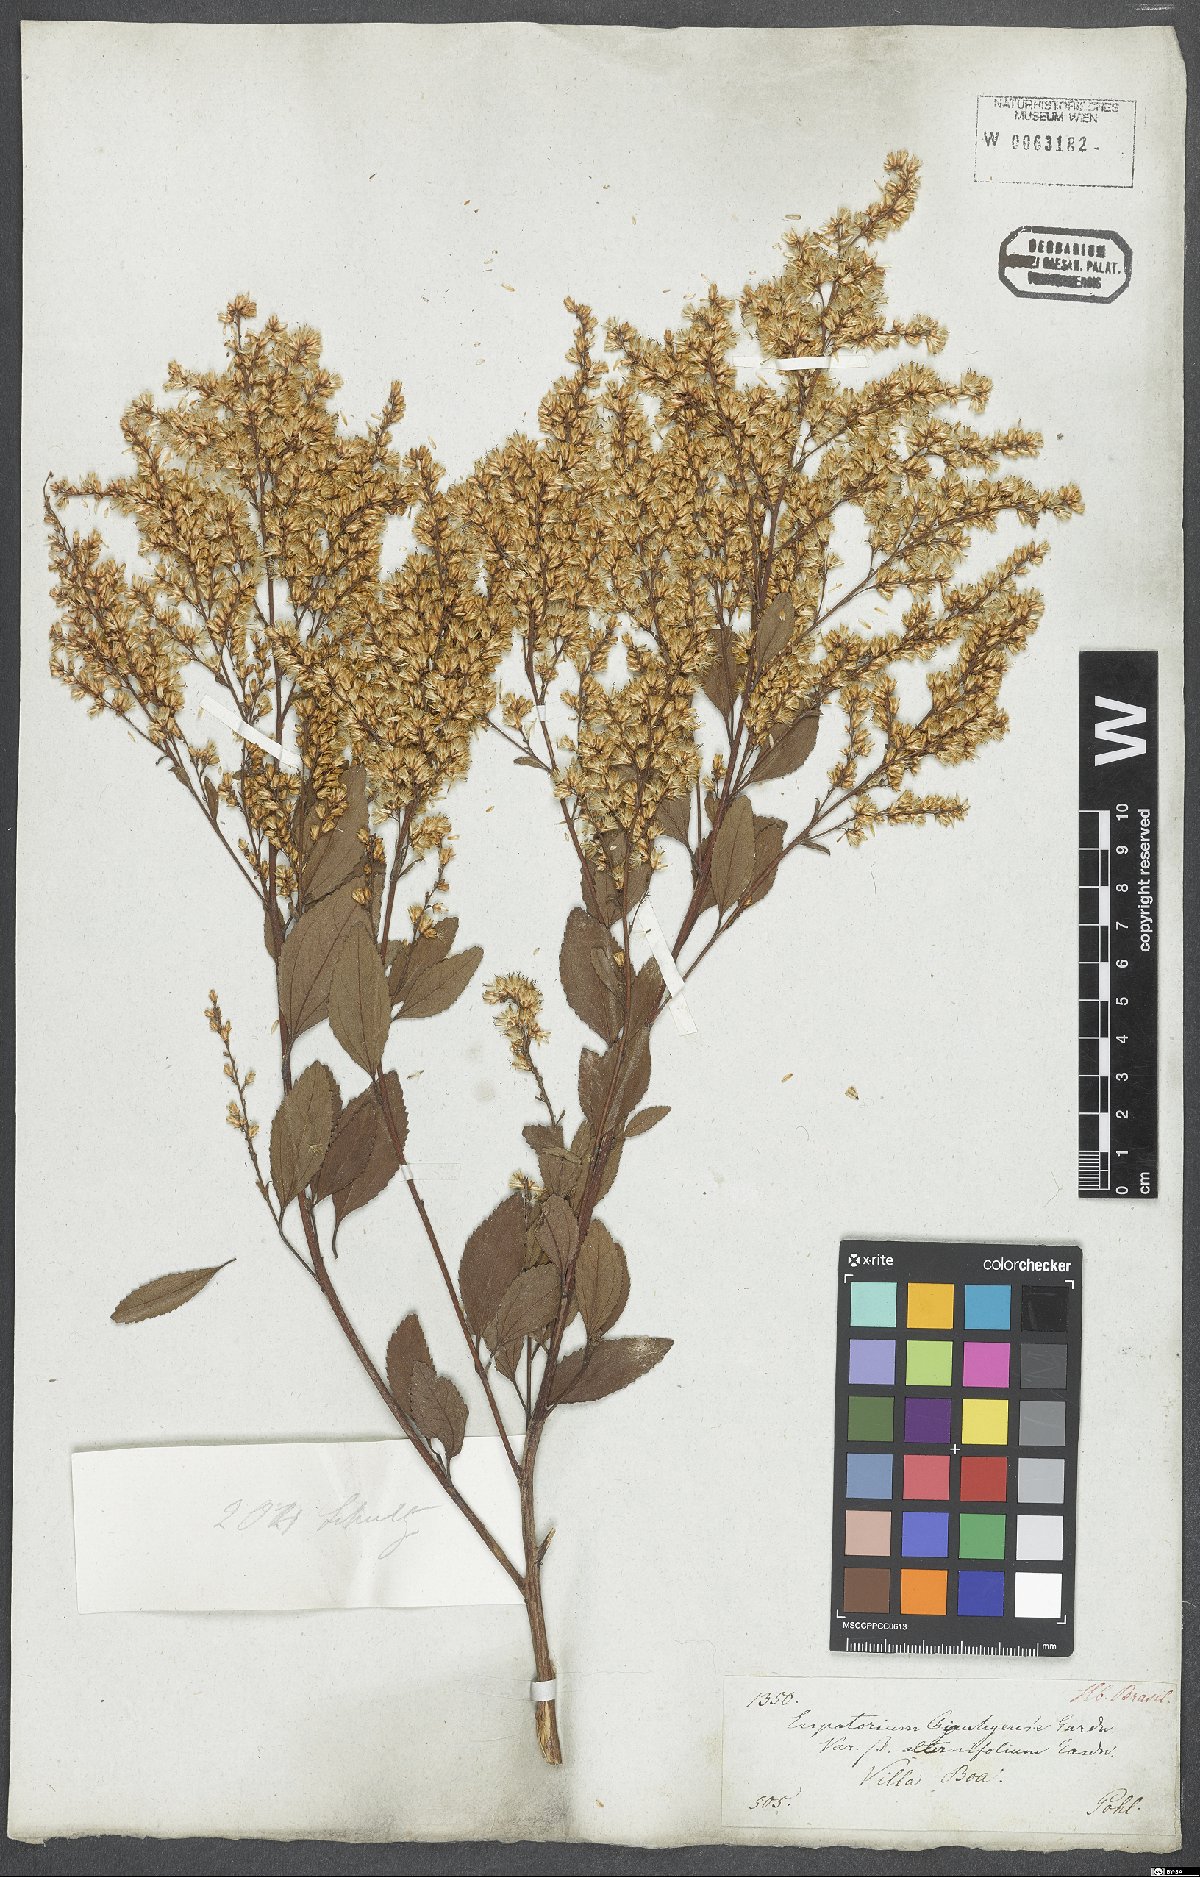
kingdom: Plantae
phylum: Tracheophyta
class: Magnoliopsida
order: Asterales
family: Asteraceae
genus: Eupatorium
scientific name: Eupatorium
